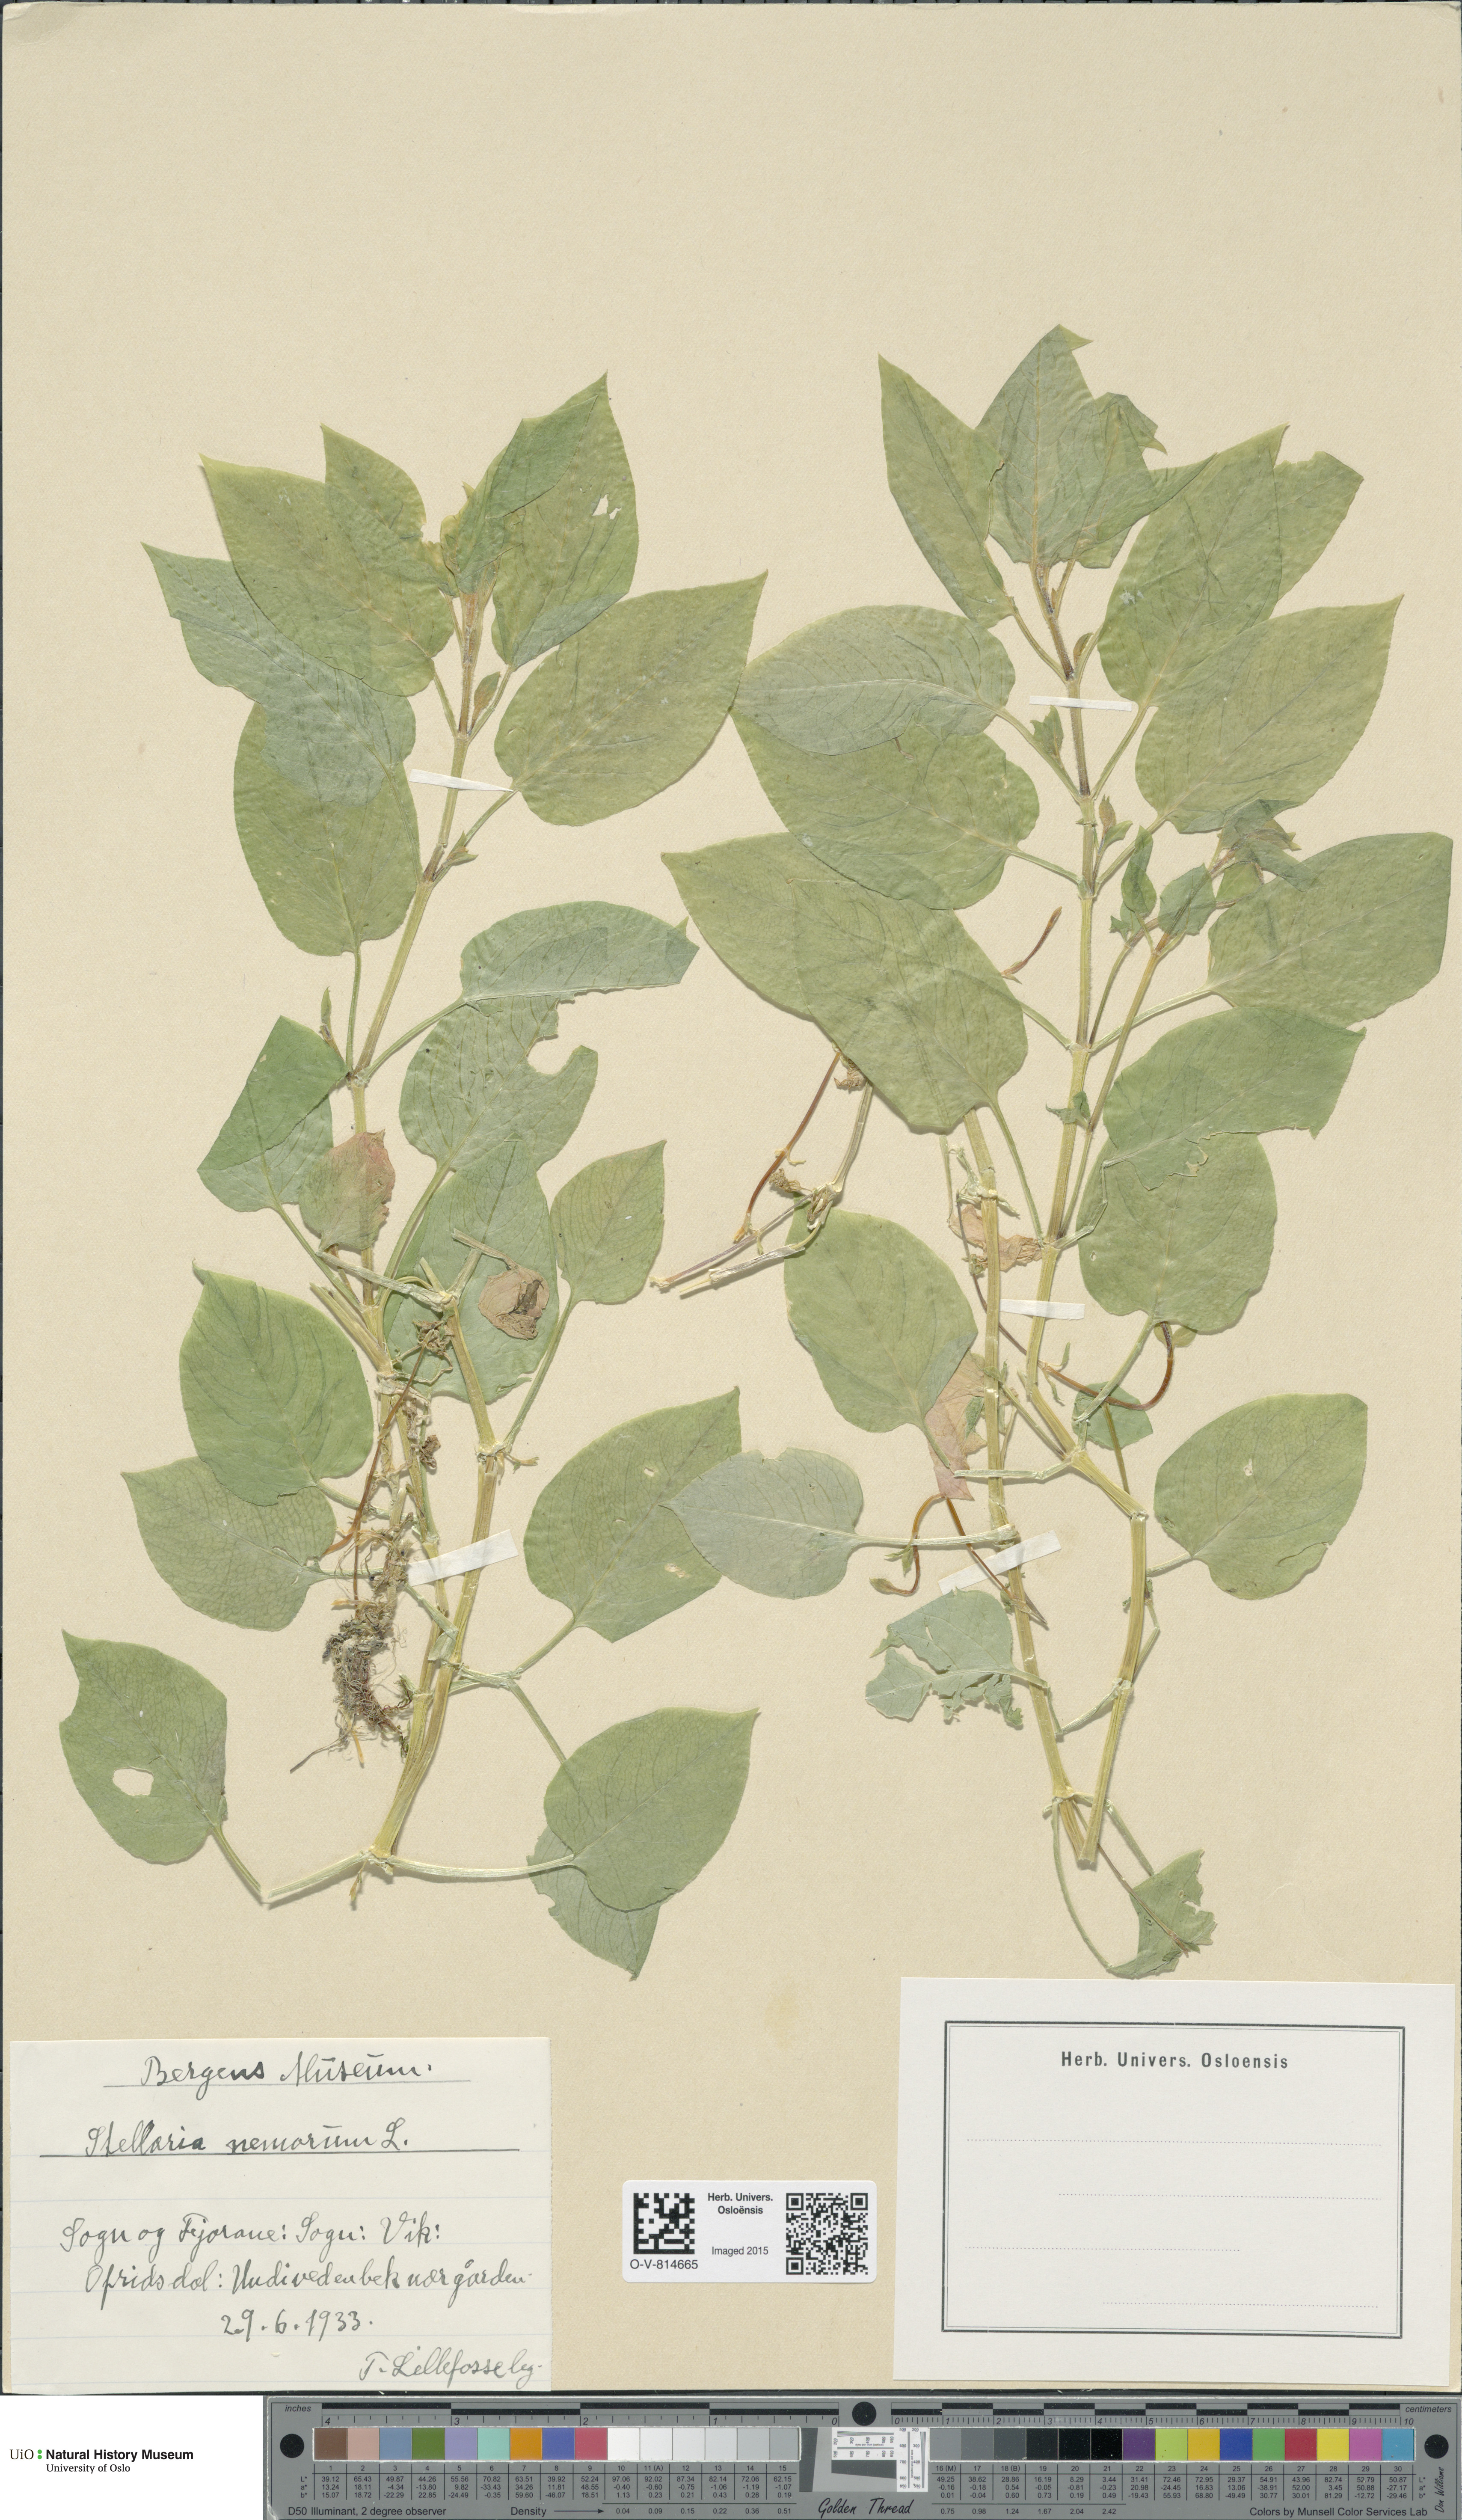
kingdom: Plantae
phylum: Tracheophyta
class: Magnoliopsida
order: Caryophyllales
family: Caryophyllaceae
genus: Stellaria
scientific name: Stellaria nemorum
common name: Wood stitchwort
